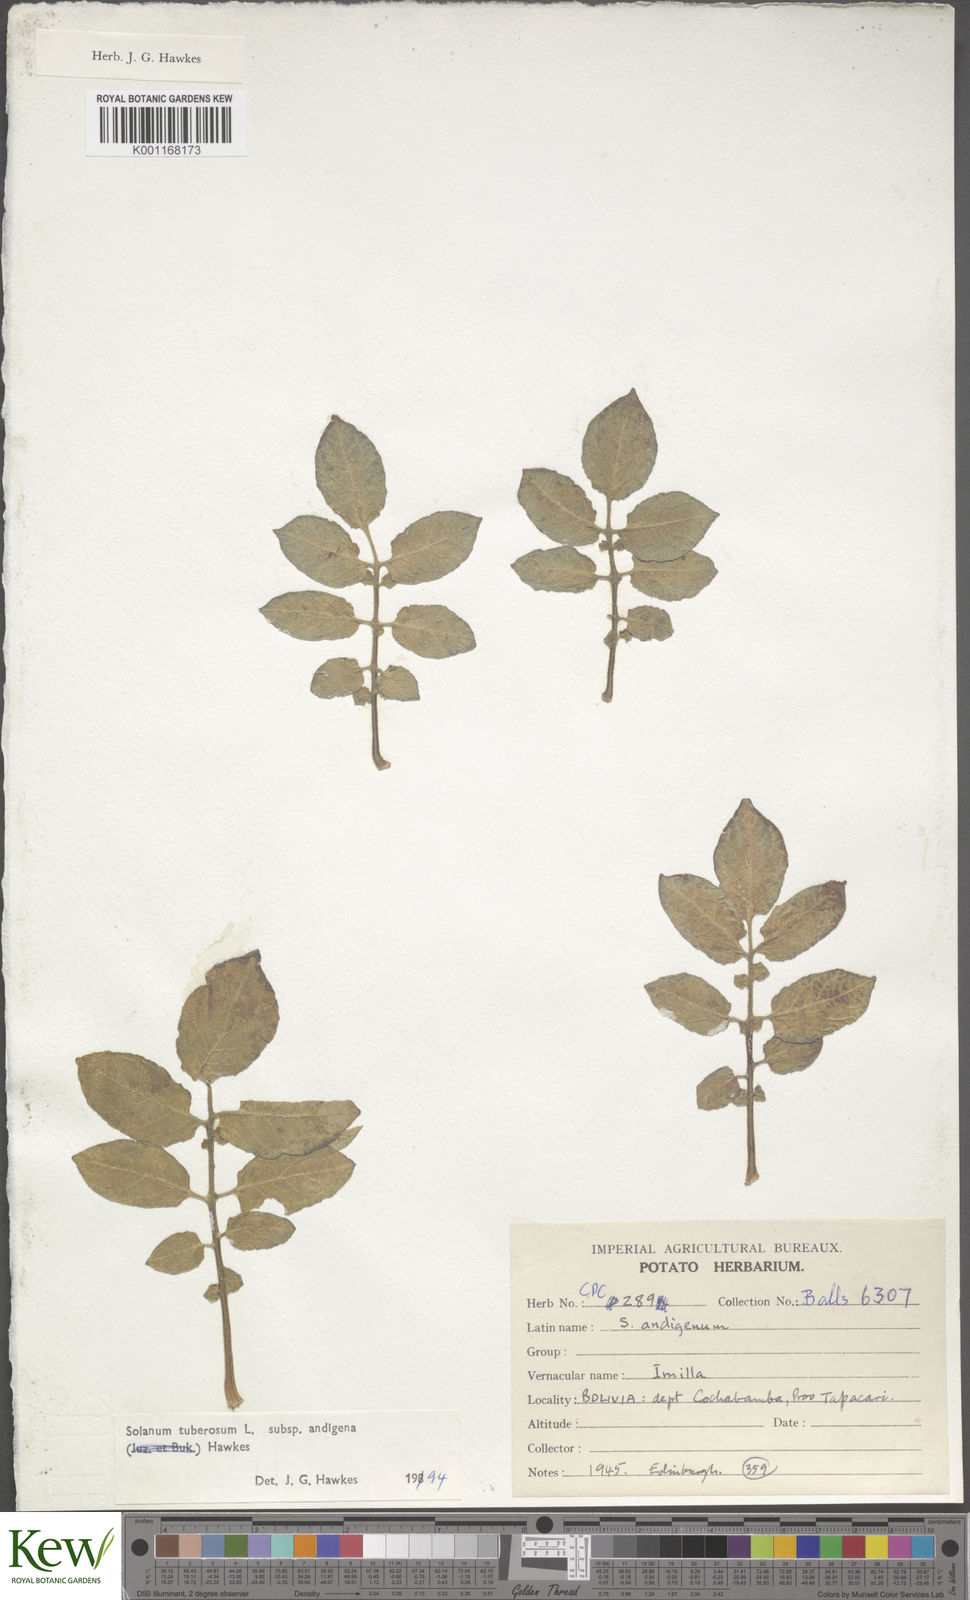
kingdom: Plantae
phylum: Tracheophyta
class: Magnoliopsida
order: Solanales
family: Solanaceae
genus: Solanum
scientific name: Solanum tuberosum
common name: Potato
